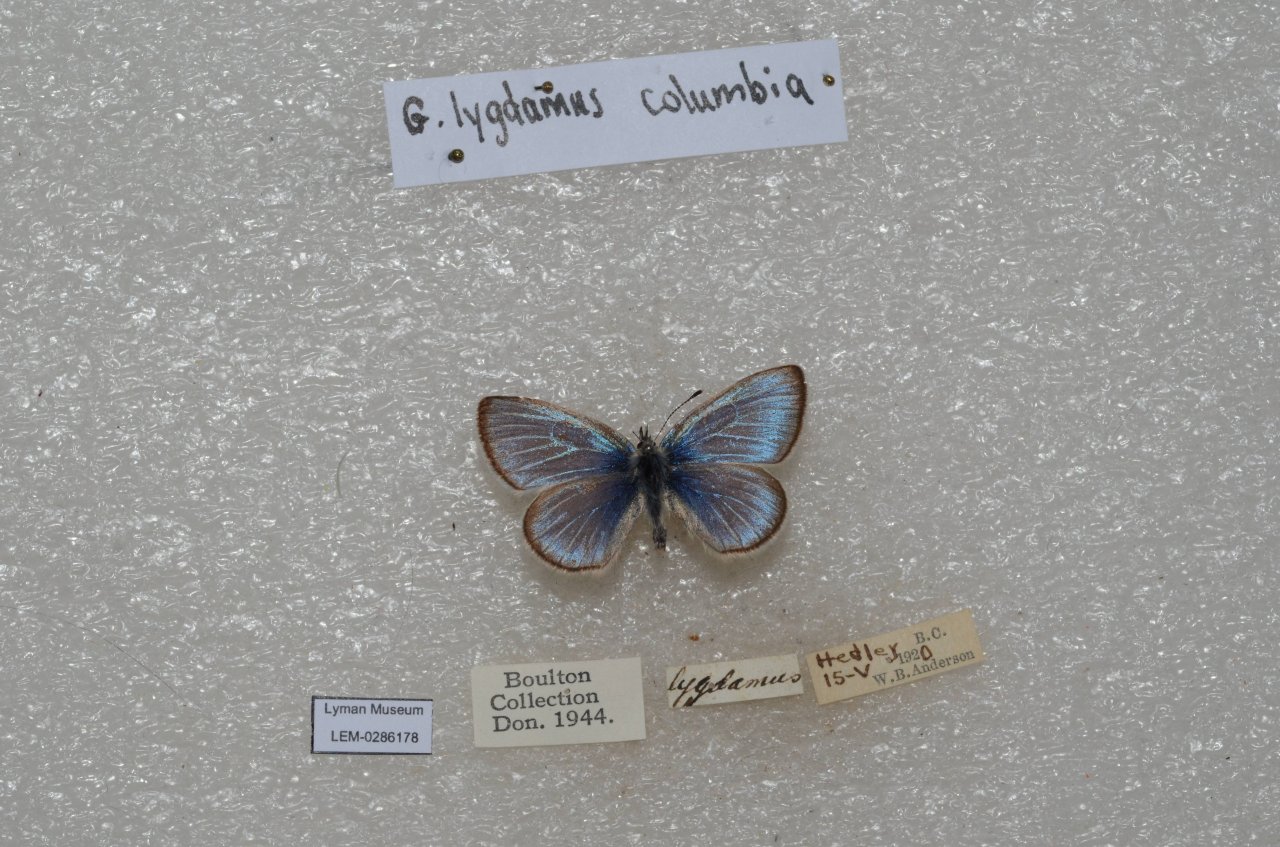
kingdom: Animalia
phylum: Arthropoda
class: Insecta
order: Lepidoptera
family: Lycaenidae
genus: Glaucopsyche
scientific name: Glaucopsyche lygdamus
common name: Silvery Blue
